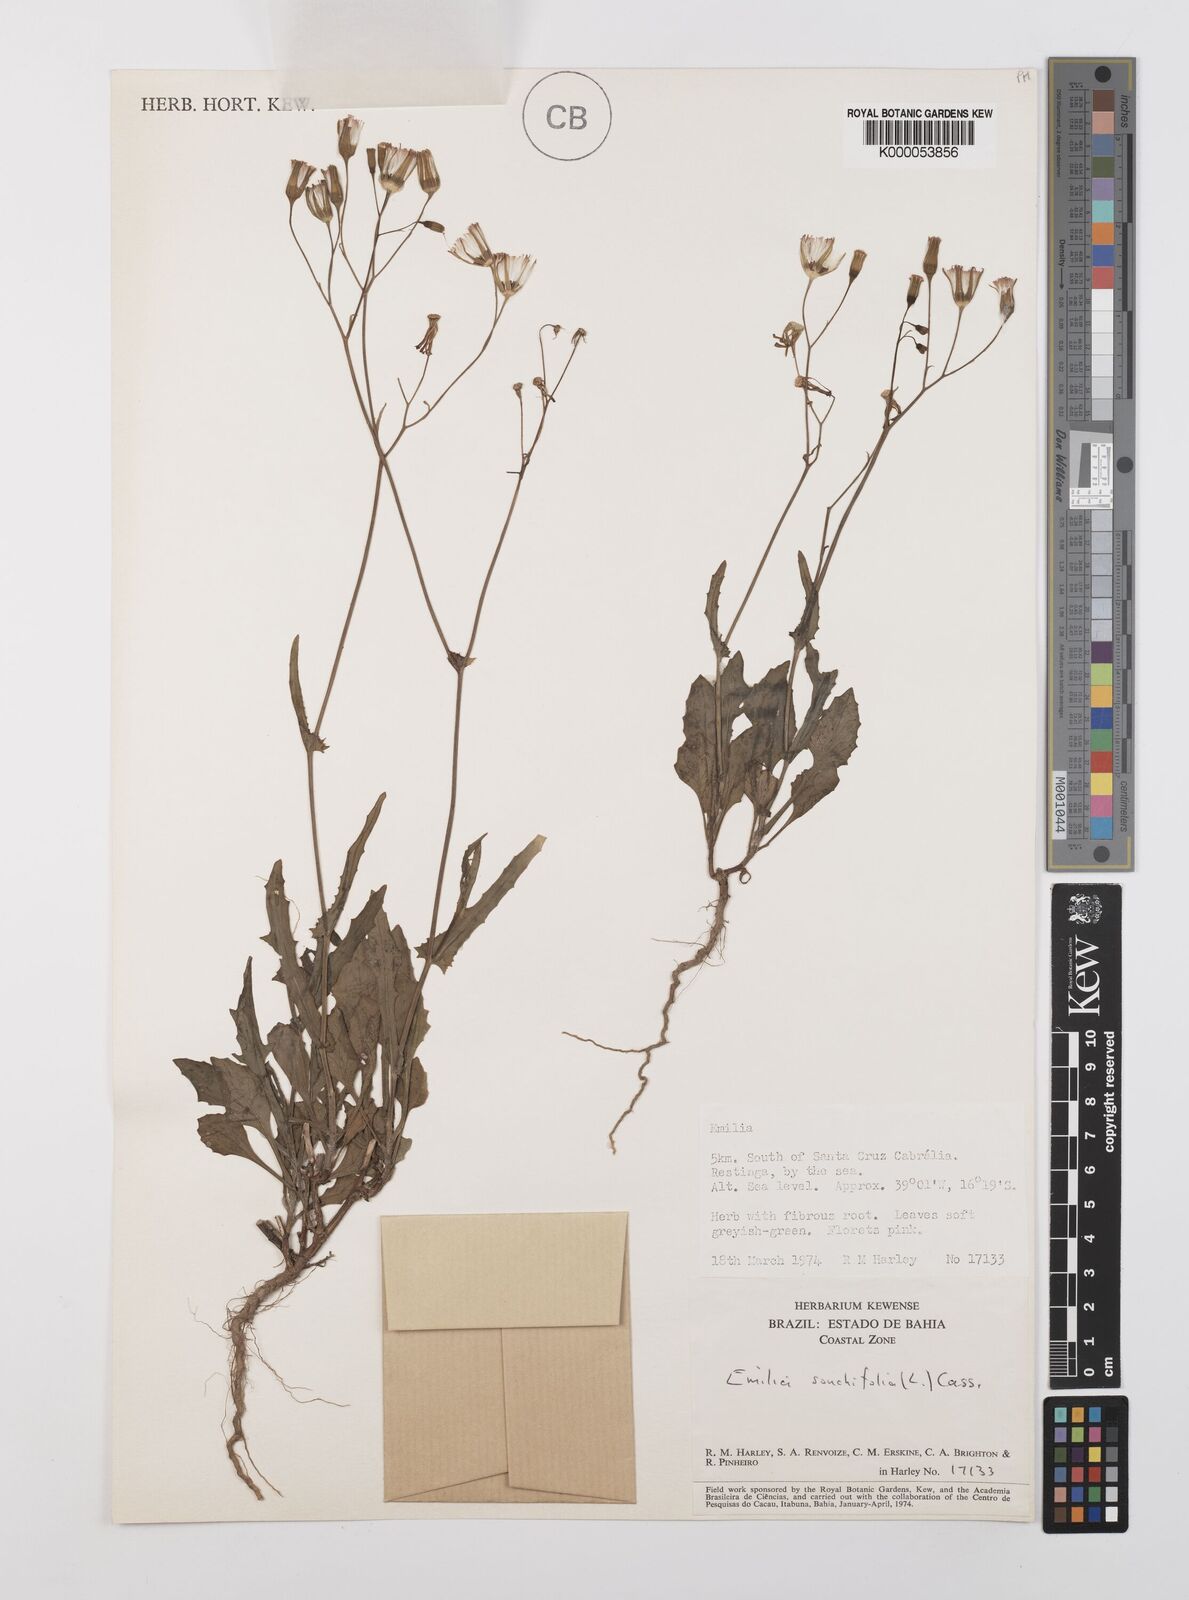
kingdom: Plantae
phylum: Tracheophyta
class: Magnoliopsida
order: Asterales
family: Asteraceae
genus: Emilia
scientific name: Emilia
